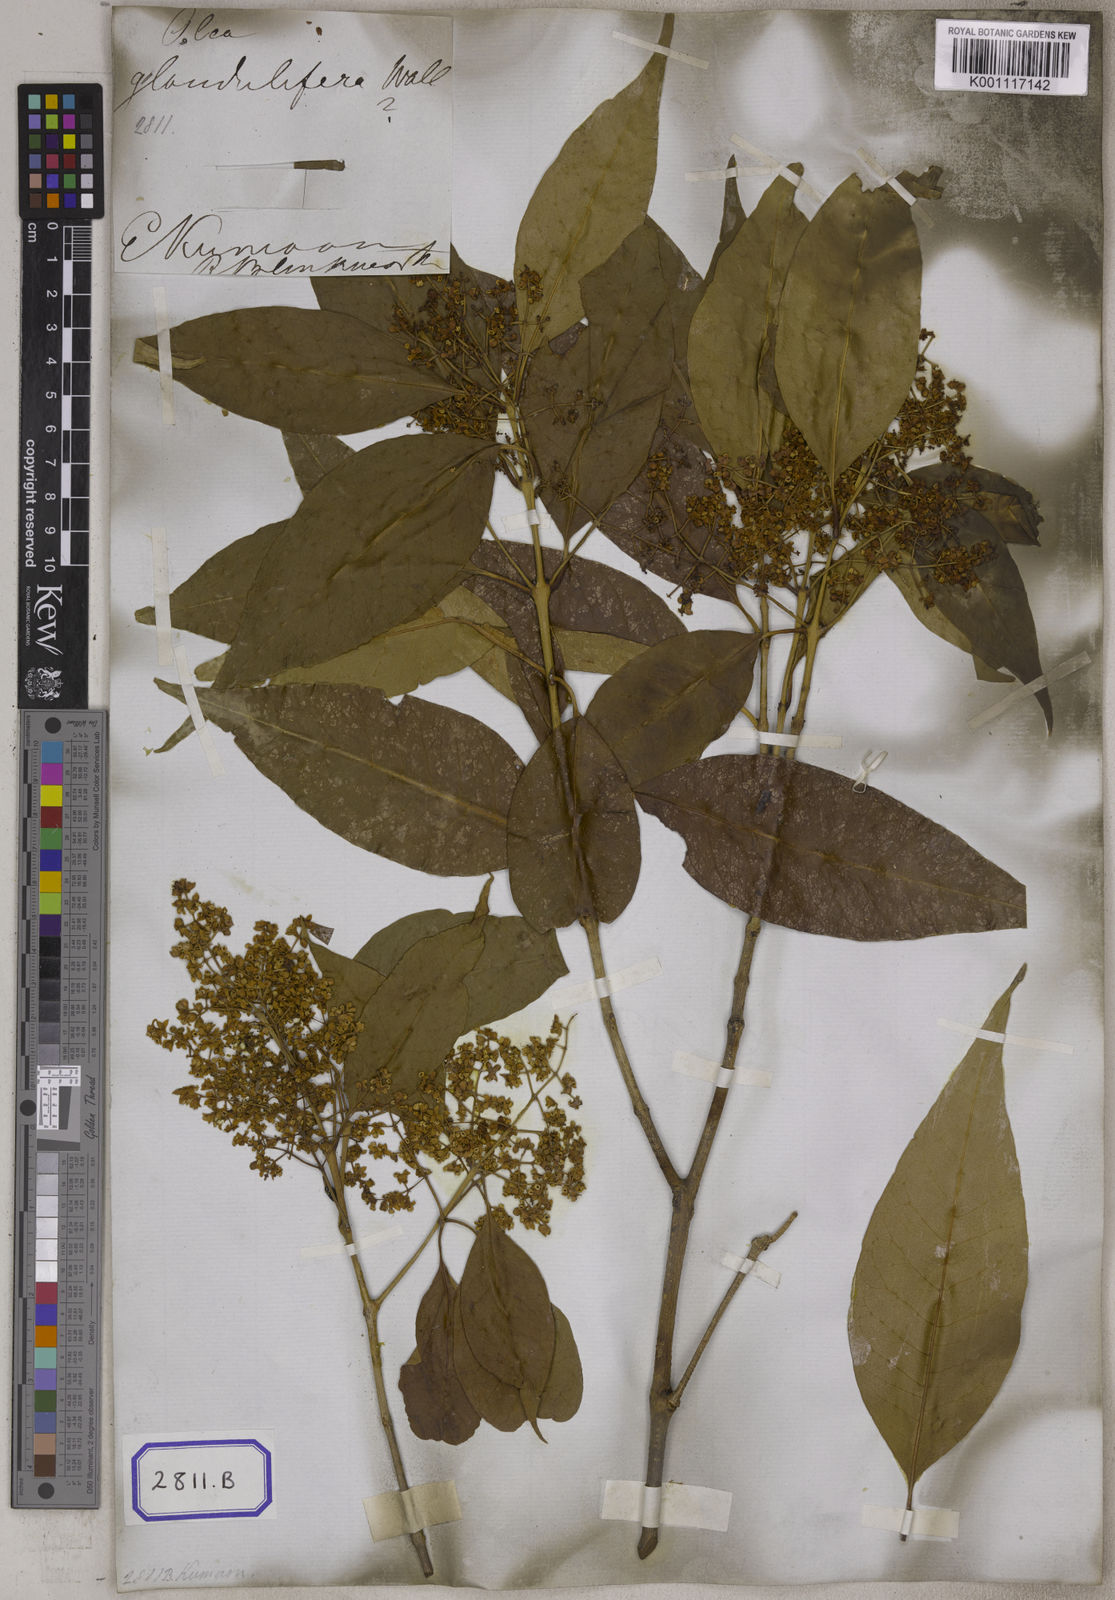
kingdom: Plantae
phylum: Tracheophyta
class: Magnoliopsida
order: Lamiales
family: Oleaceae
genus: Olea
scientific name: Olea paniculata
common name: Australian olive
